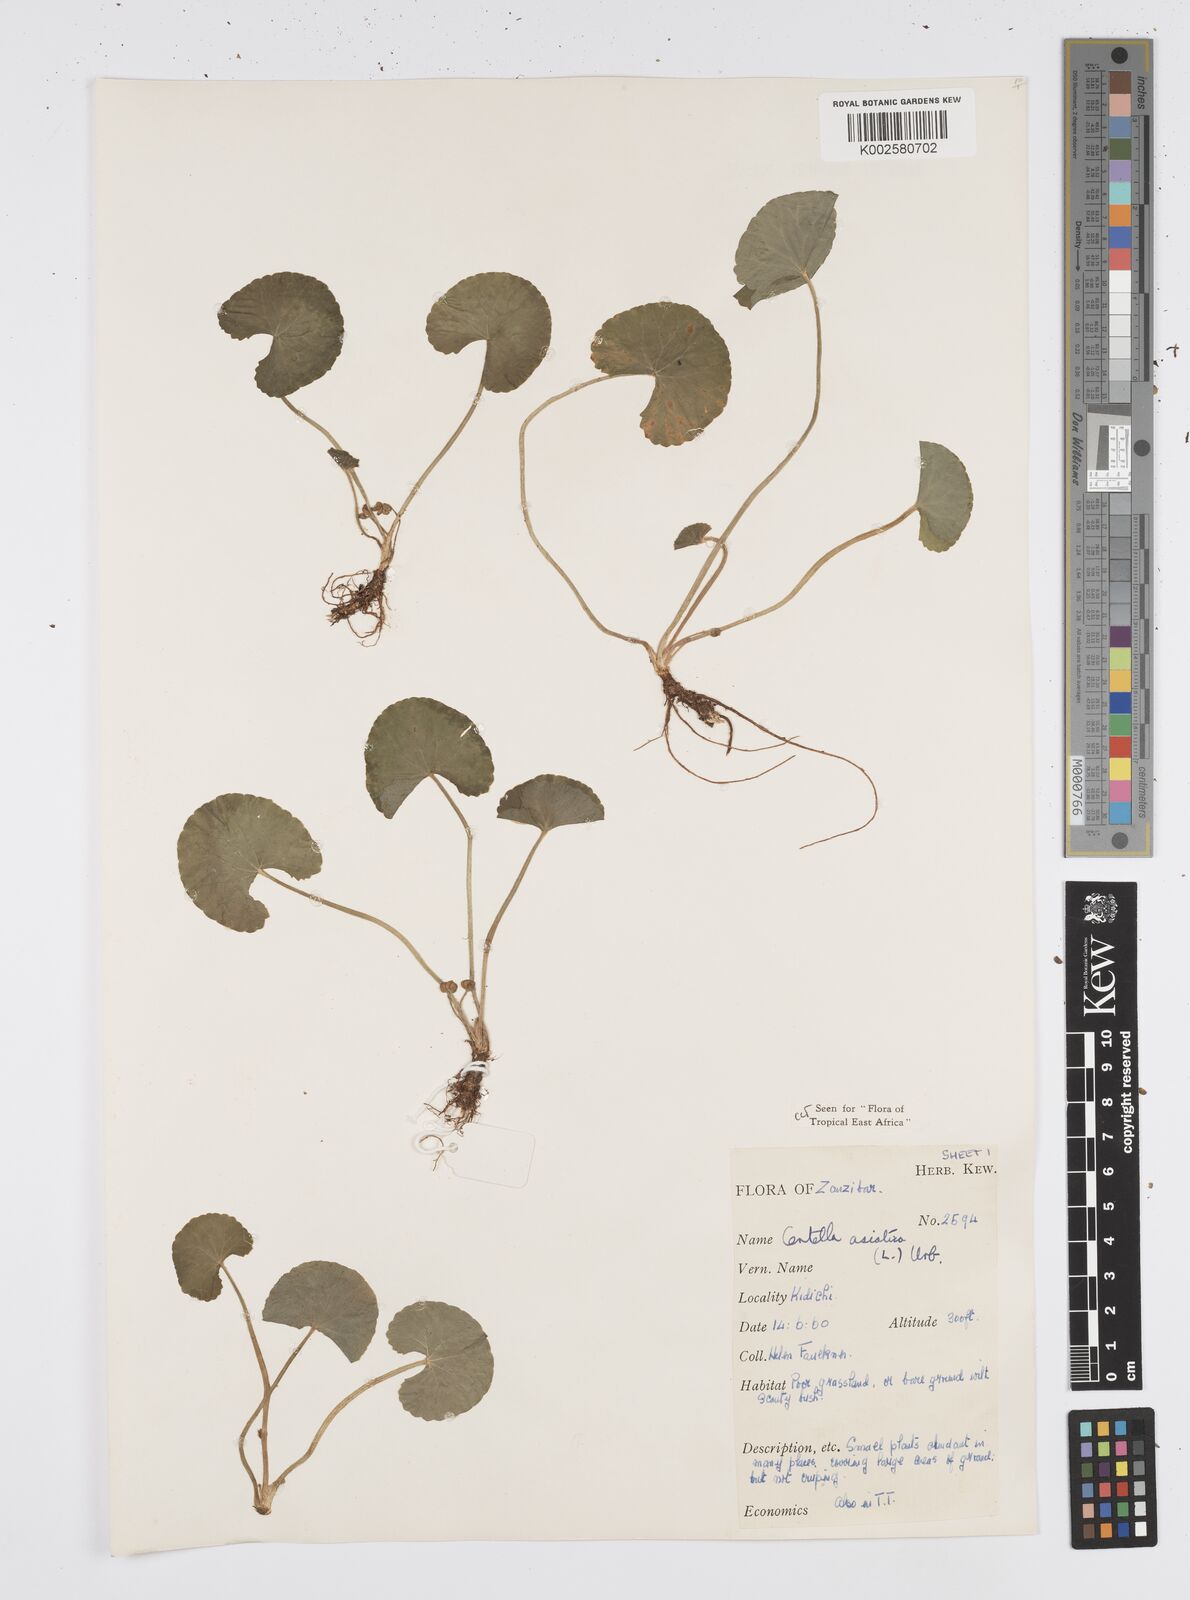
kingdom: Plantae
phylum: Tracheophyta
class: Magnoliopsida
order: Apiales
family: Apiaceae
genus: Centella
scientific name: Centella asiatica
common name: Spadeleaf
